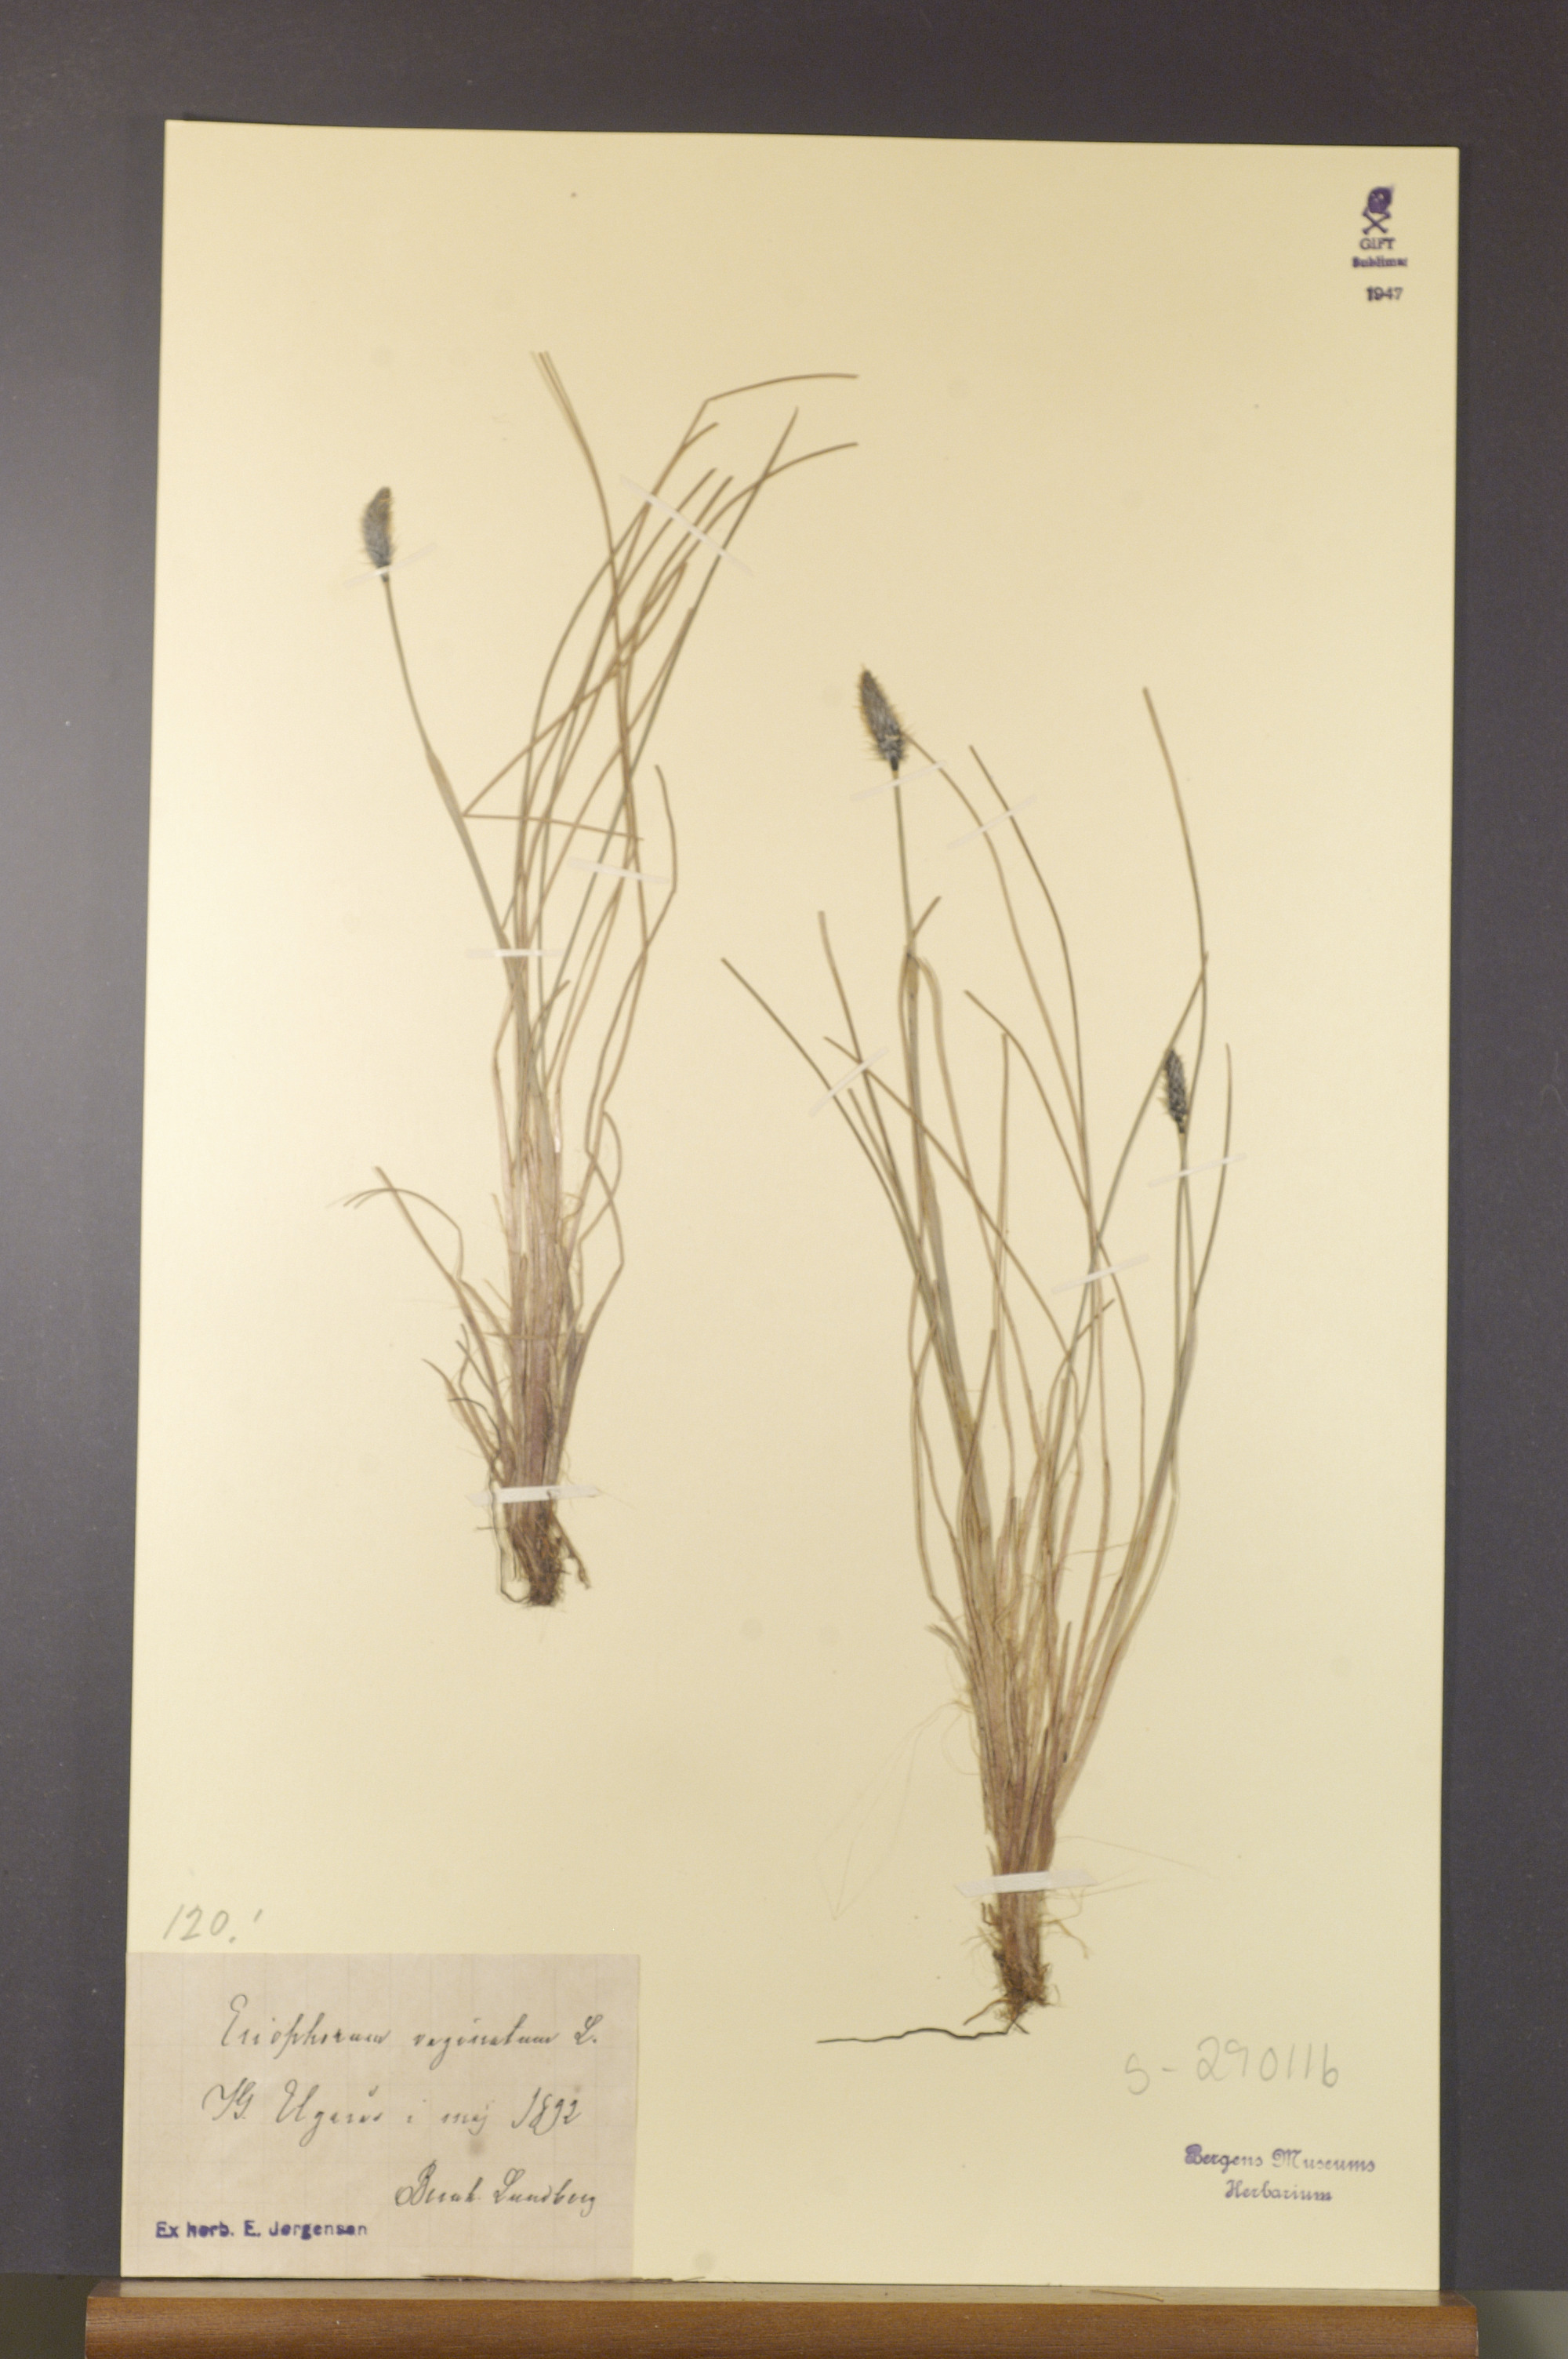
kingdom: Plantae
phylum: Tracheophyta
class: Liliopsida
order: Poales
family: Cyperaceae
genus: Eriophorum
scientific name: Eriophorum vaginatum
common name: Hare's-tail cottongrass
